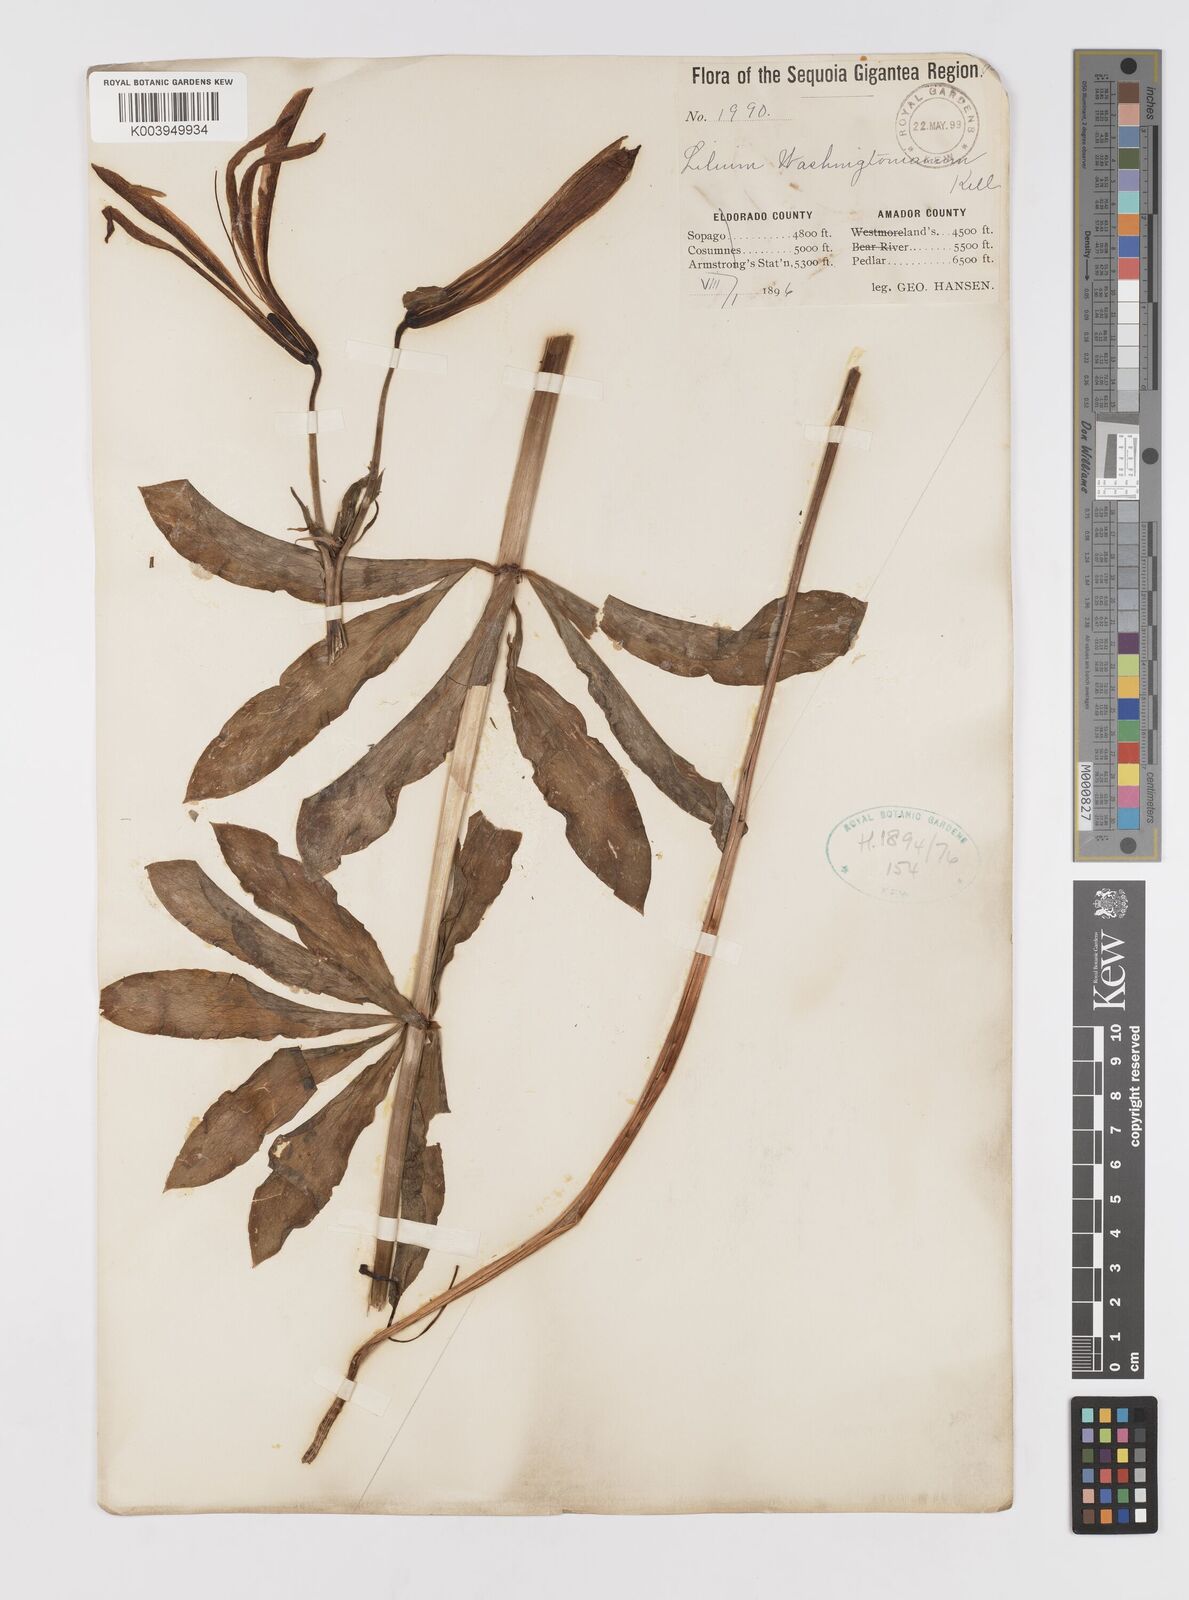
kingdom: Plantae
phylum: Tracheophyta
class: Liliopsida
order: Liliales
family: Liliaceae
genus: Lilium
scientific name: Lilium washingtonianum
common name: Washington lily
